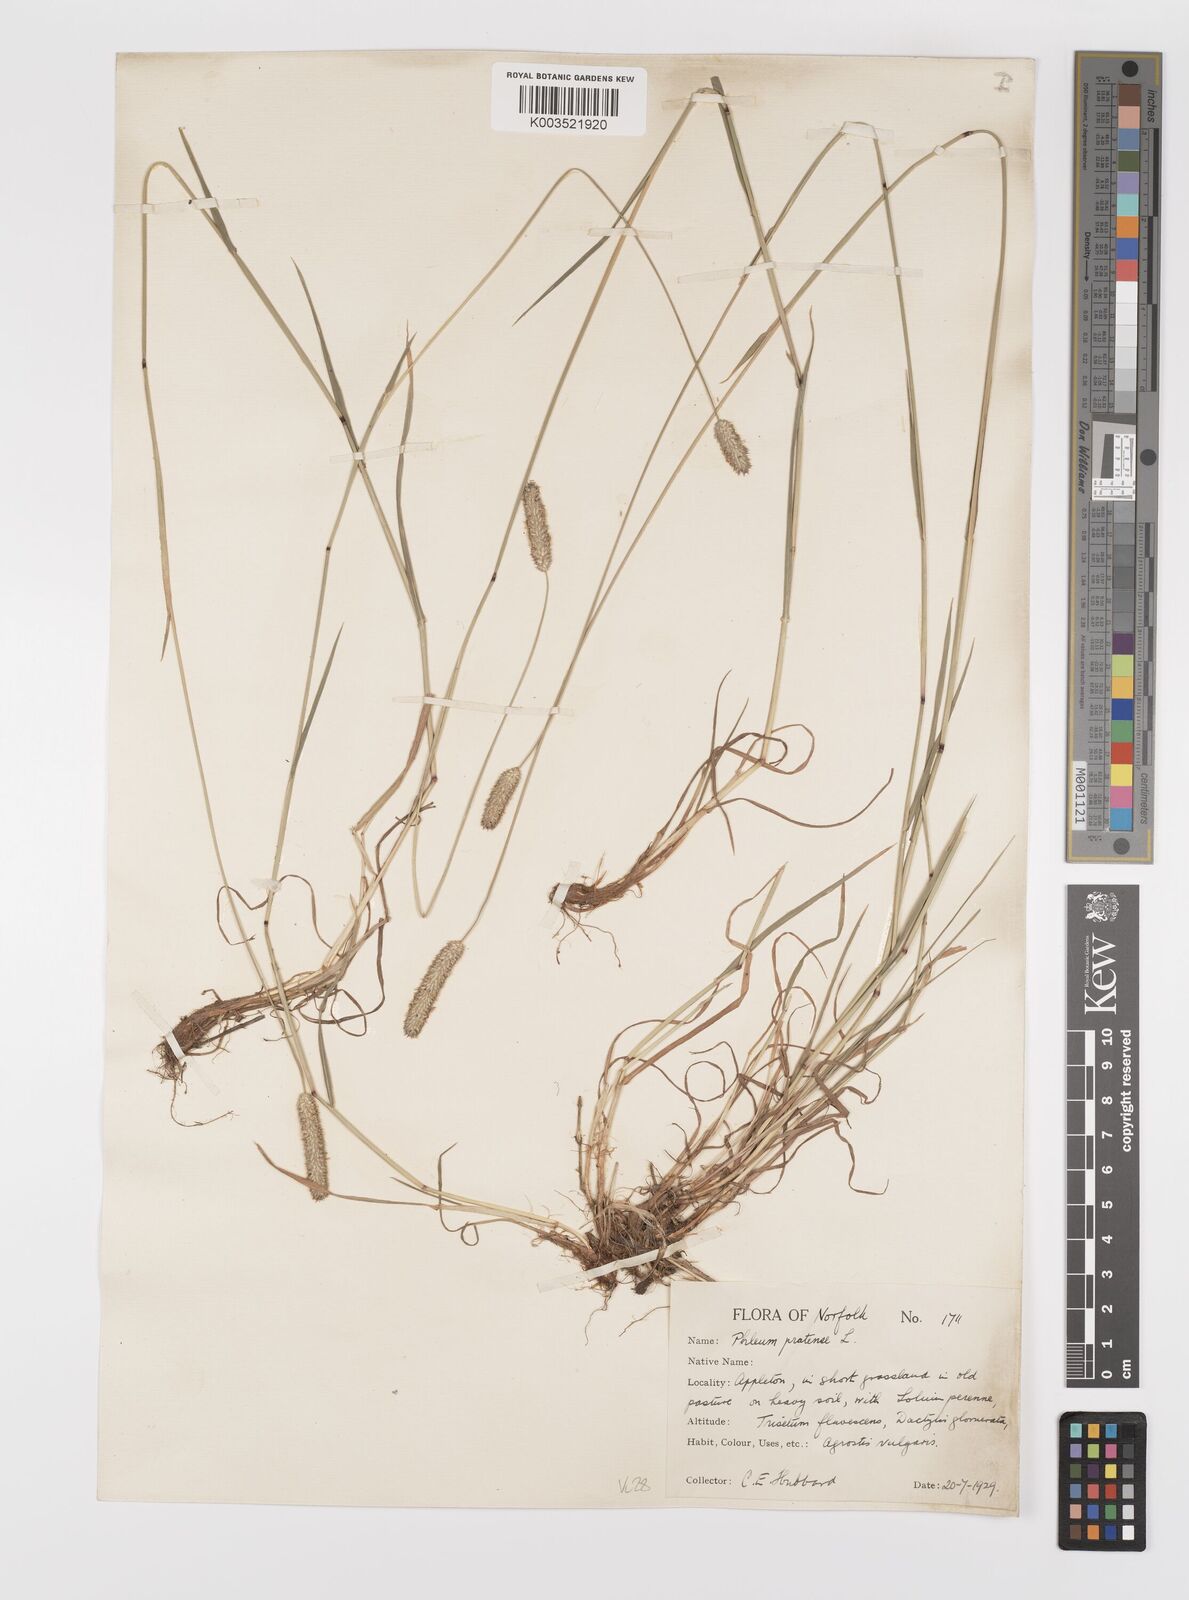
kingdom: Plantae
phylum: Tracheophyta
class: Liliopsida
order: Poales
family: Poaceae
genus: Phleum
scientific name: Phleum bertolonii
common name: Smaller cat's-tail
